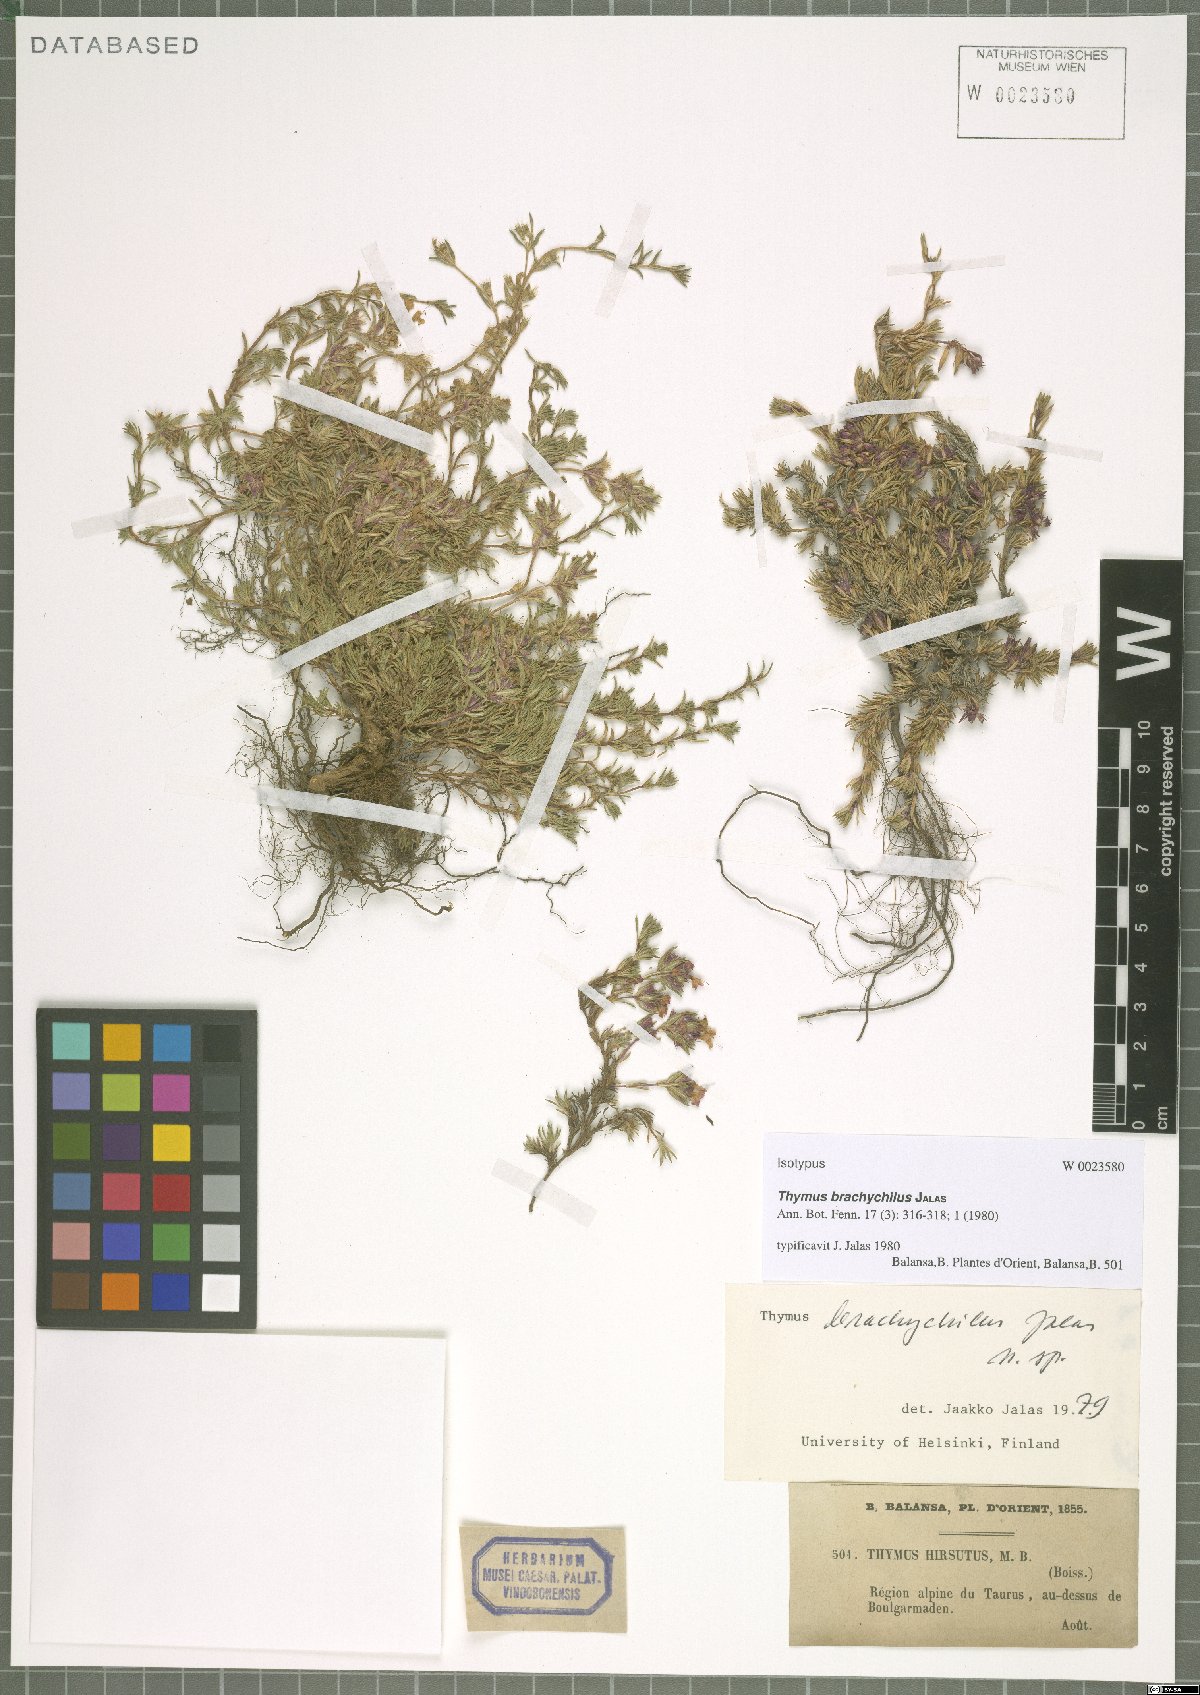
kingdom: Plantae
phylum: Tracheophyta
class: Magnoliopsida
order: Lamiales
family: Lamiaceae
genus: Thymus
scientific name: Thymus brachychilus
